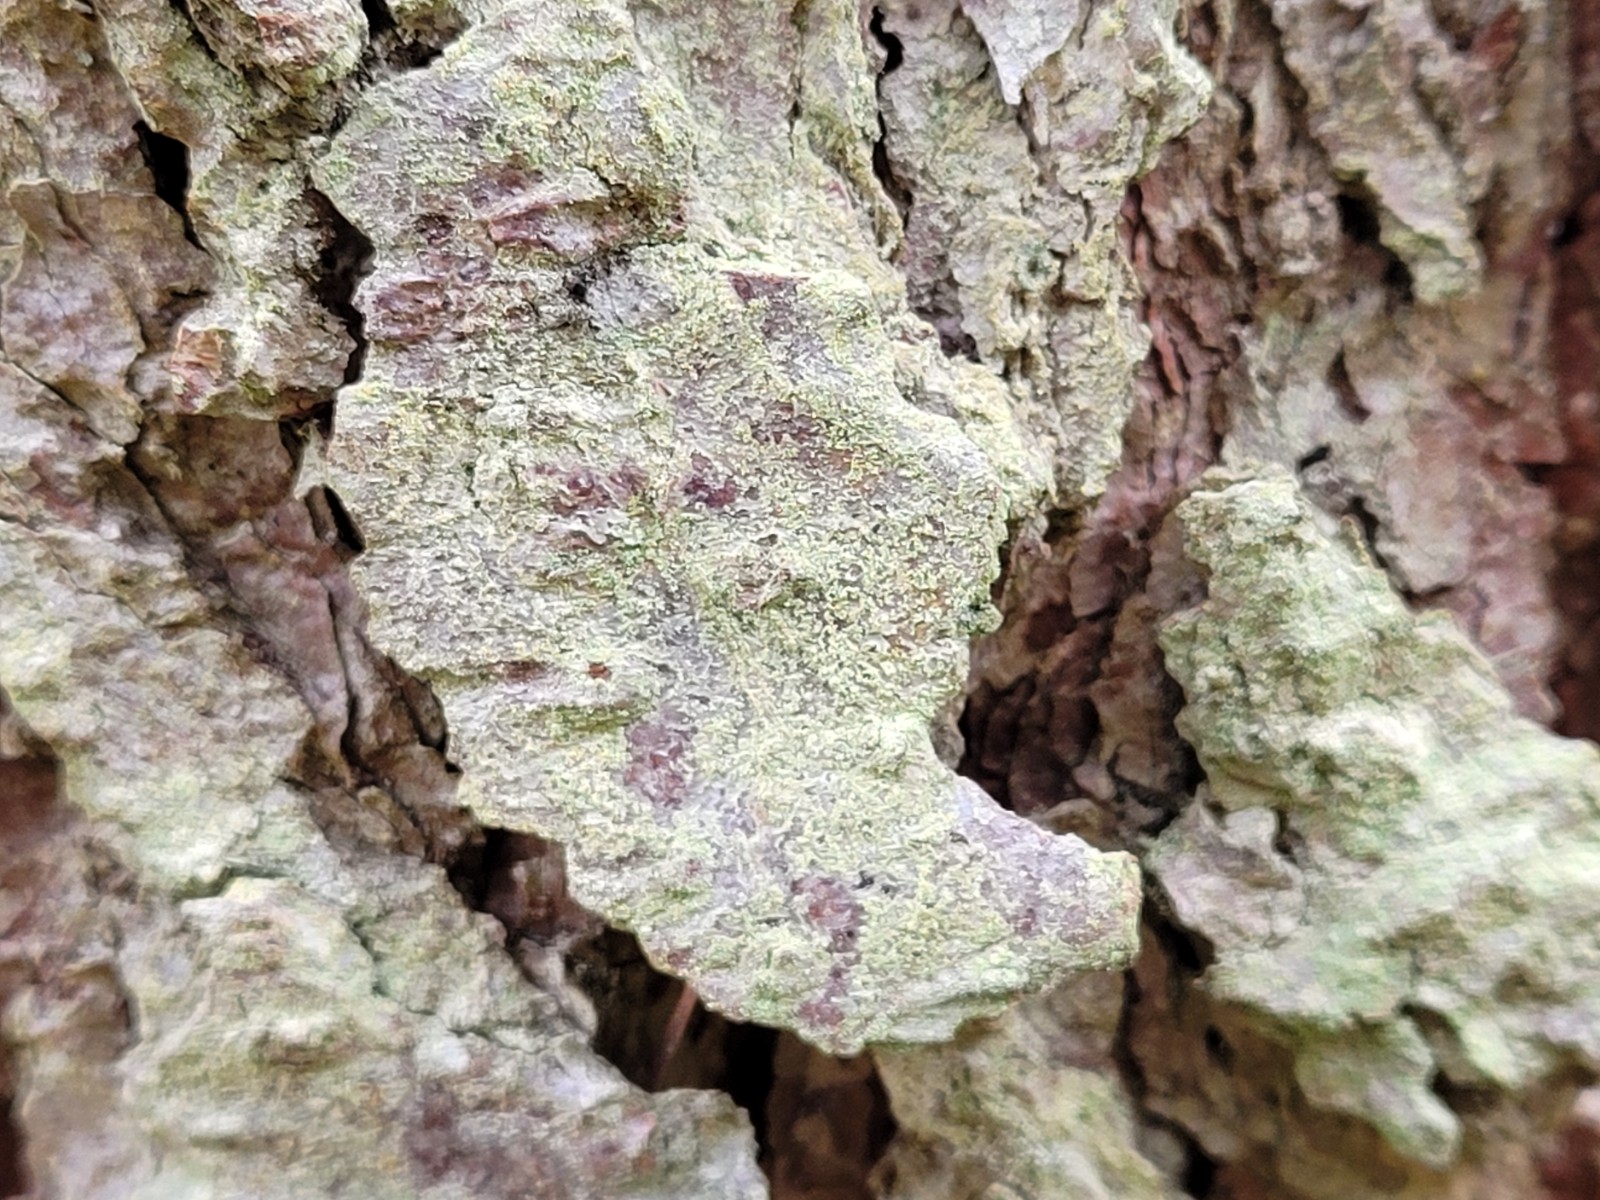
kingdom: Fungi
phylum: Ascomycota
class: Lecanoromycetes
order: Lecanorales
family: Lecanoraceae
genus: Lecanora
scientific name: Lecanora expallens
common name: bleggul kantskivelav
